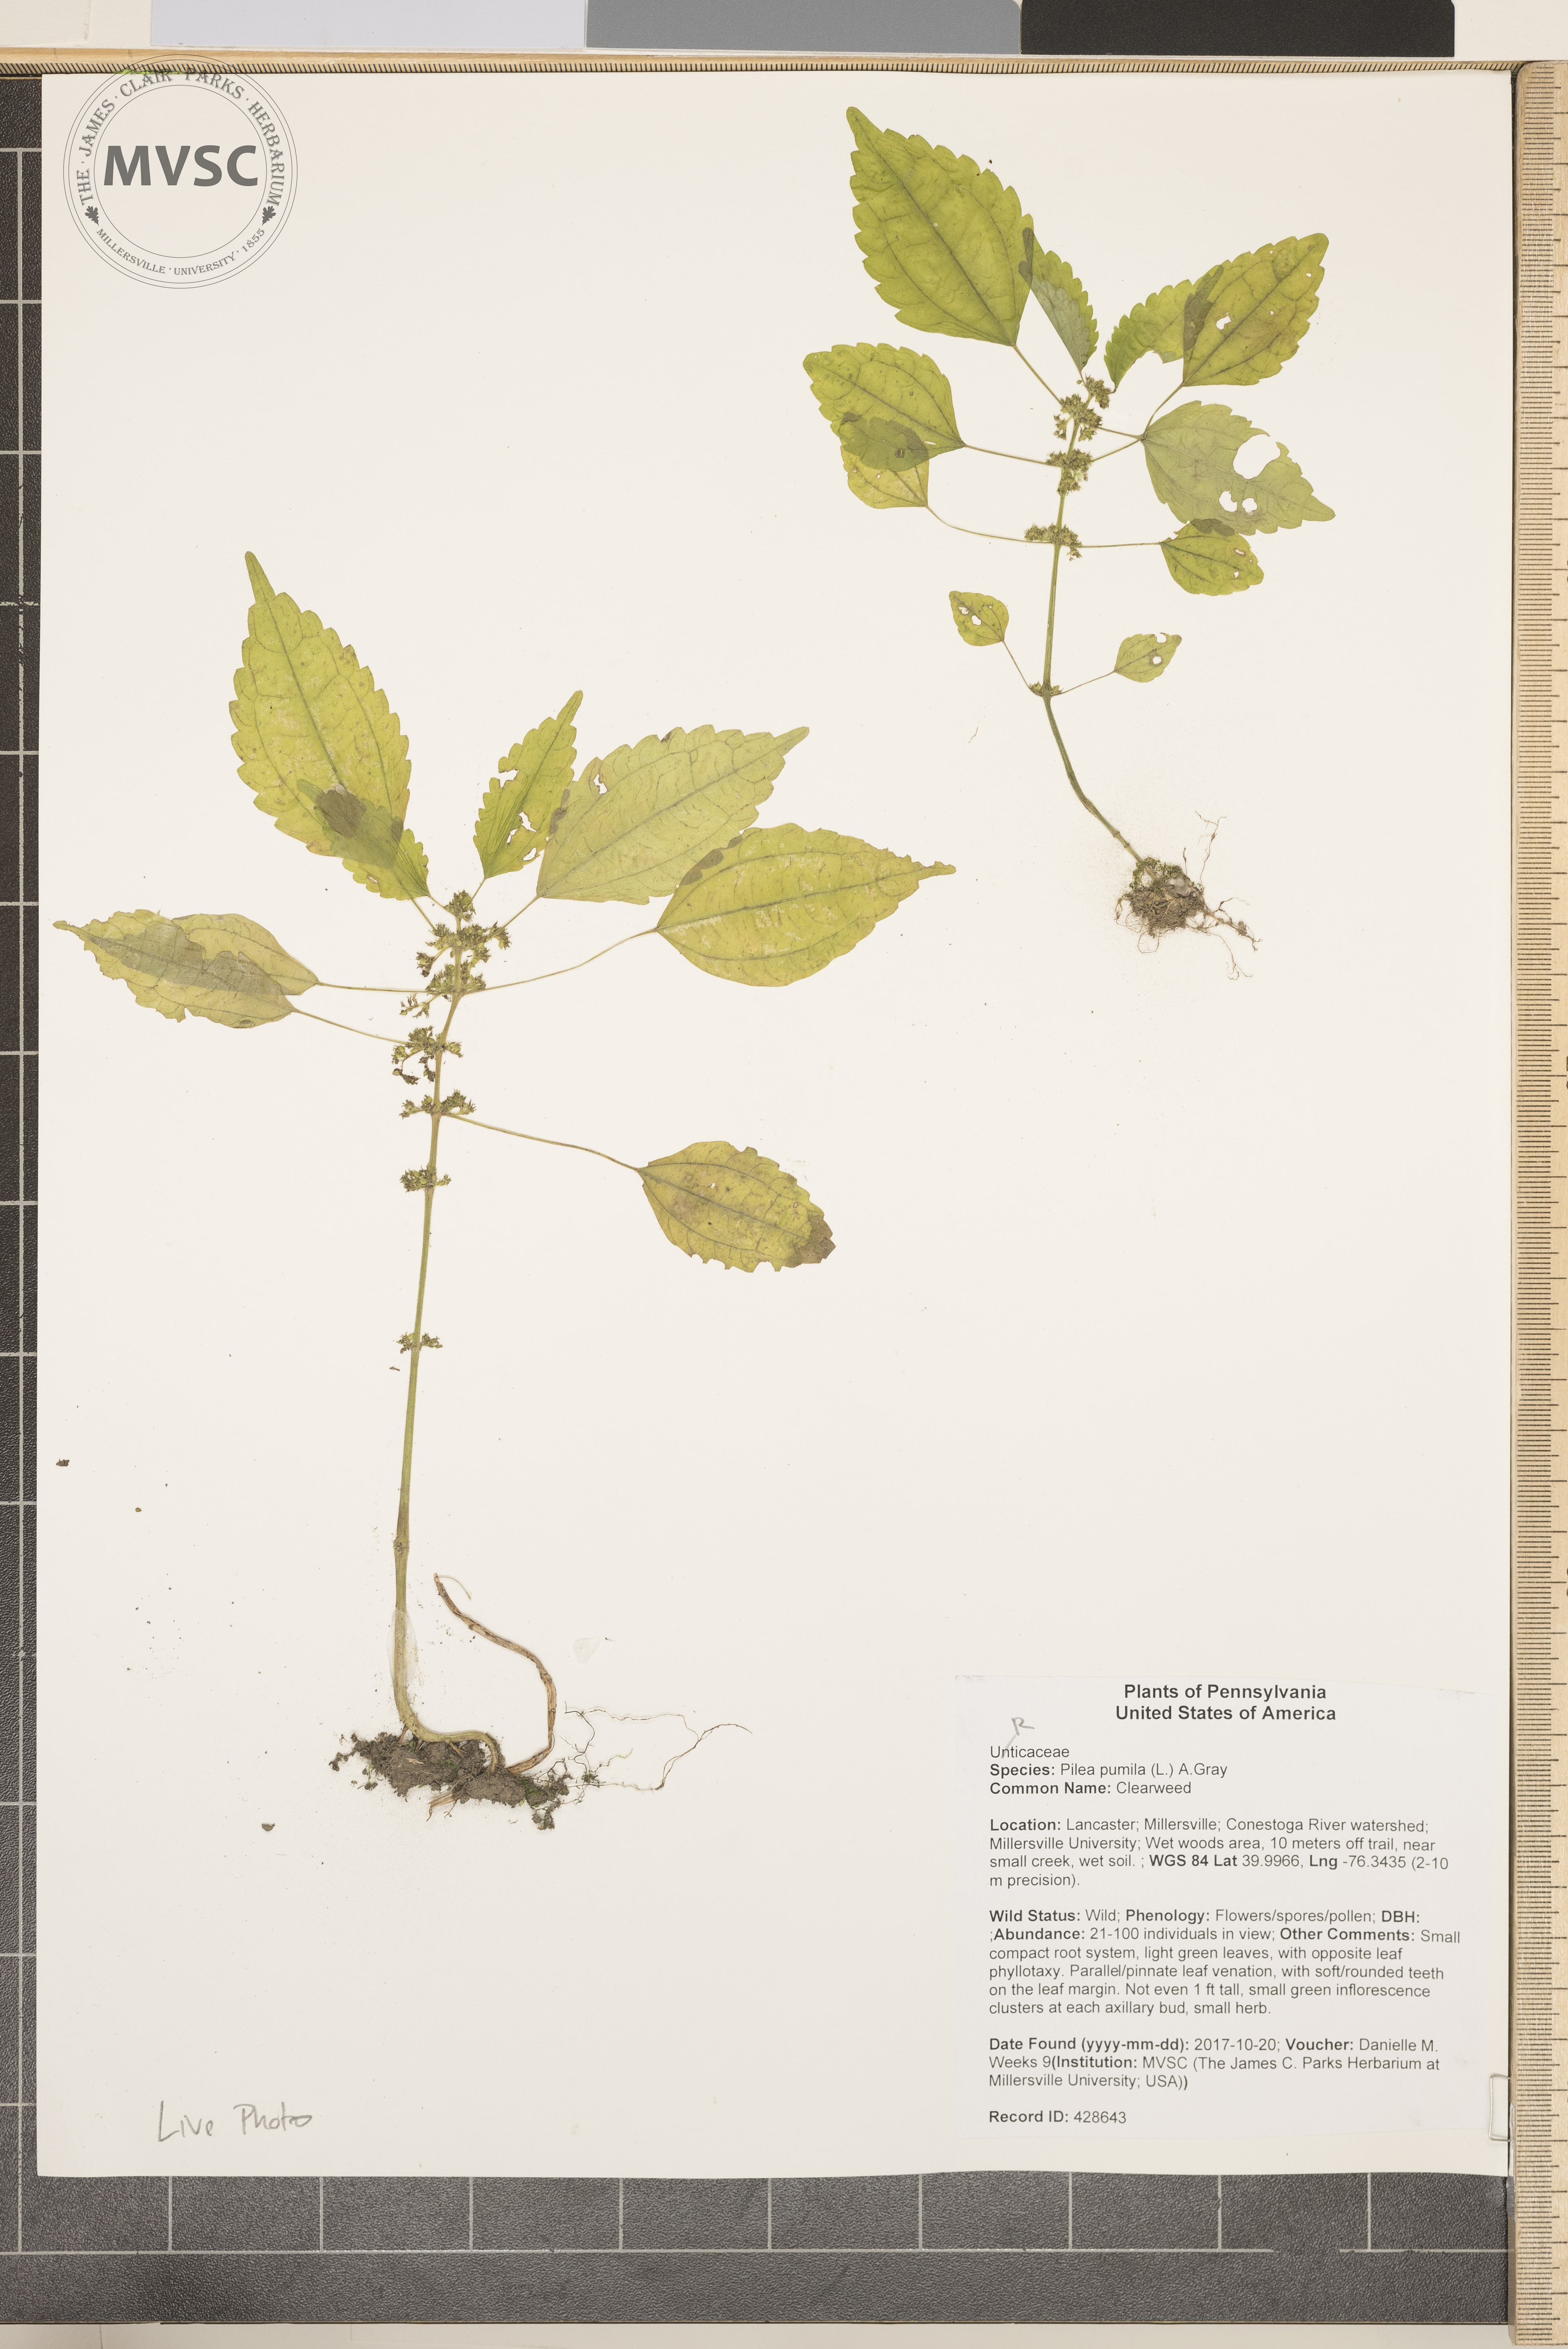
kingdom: Plantae
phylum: Tracheophyta
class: Magnoliopsida
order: Rosales
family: Urticaceae
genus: Pilea
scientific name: Pilea pumila
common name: Clearweed
